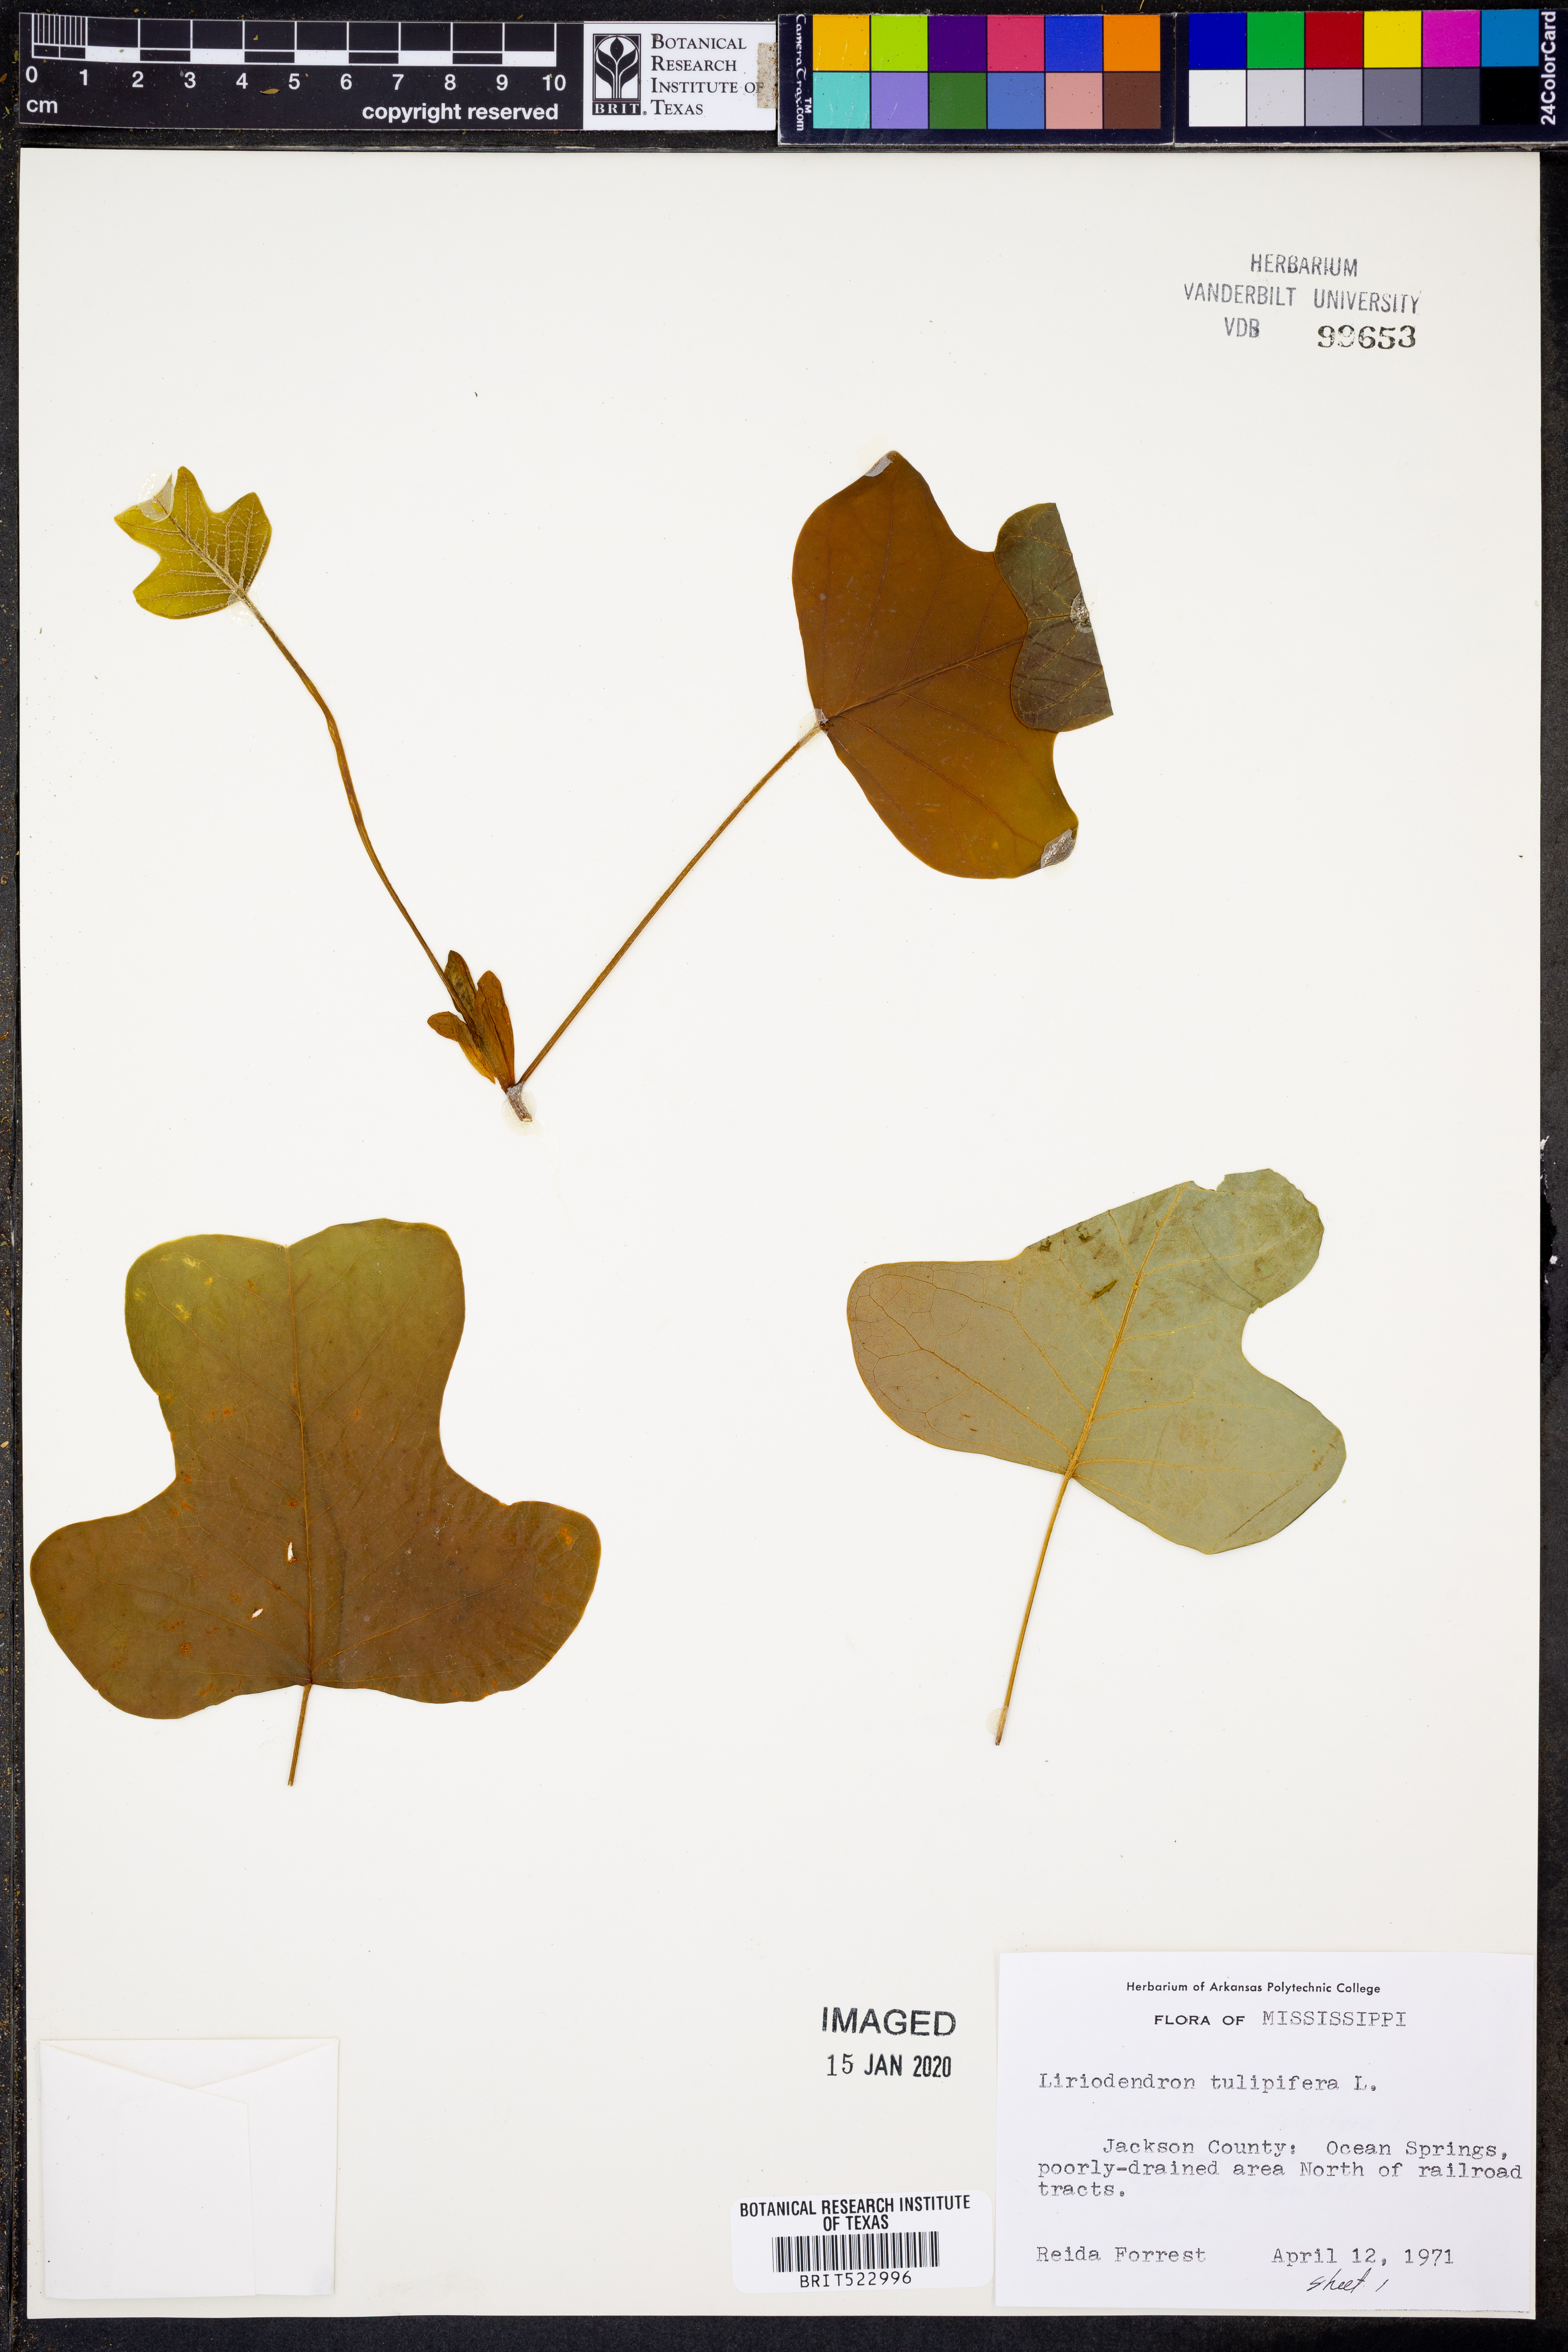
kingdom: Plantae
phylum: Tracheophyta
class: Magnoliopsida
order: Magnoliales
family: Magnoliaceae
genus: Liriodendron
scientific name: Liriodendron tulipifera
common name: Tulip tree
